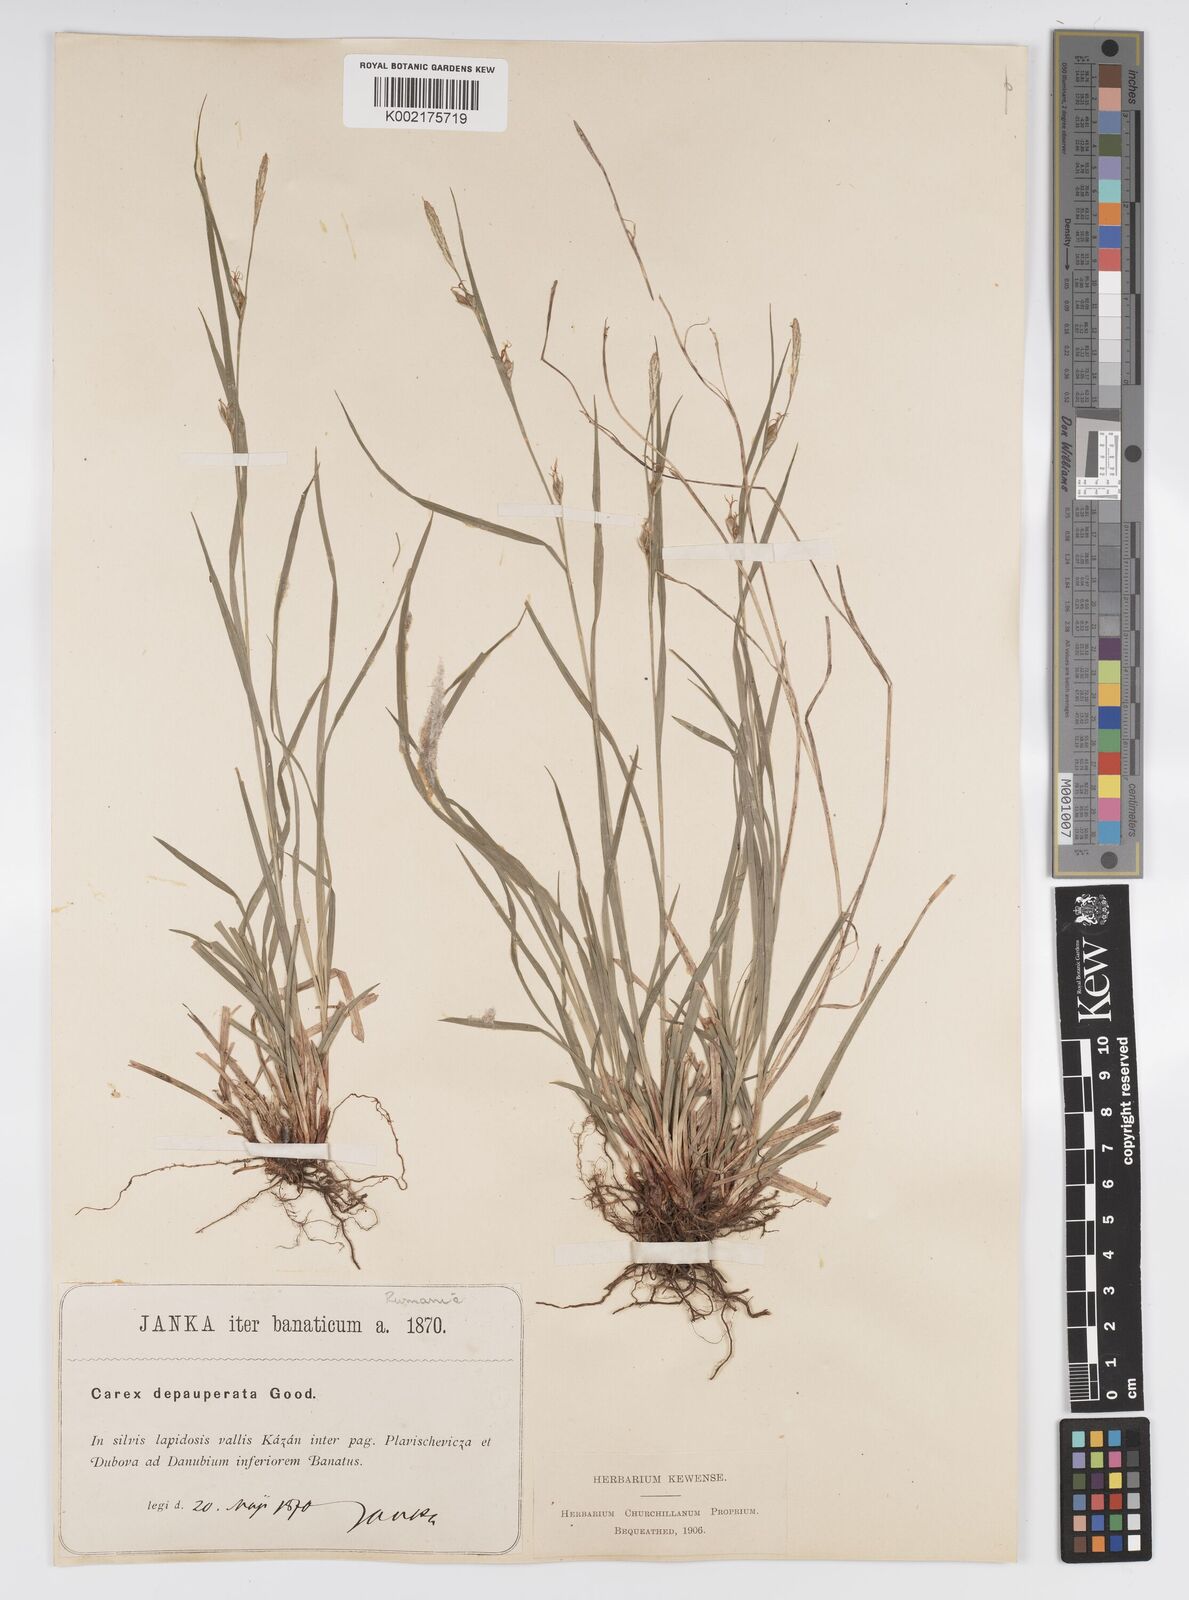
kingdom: Plantae
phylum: Tracheophyta
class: Liliopsida
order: Poales
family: Cyperaceae
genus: Carex
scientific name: Carex
